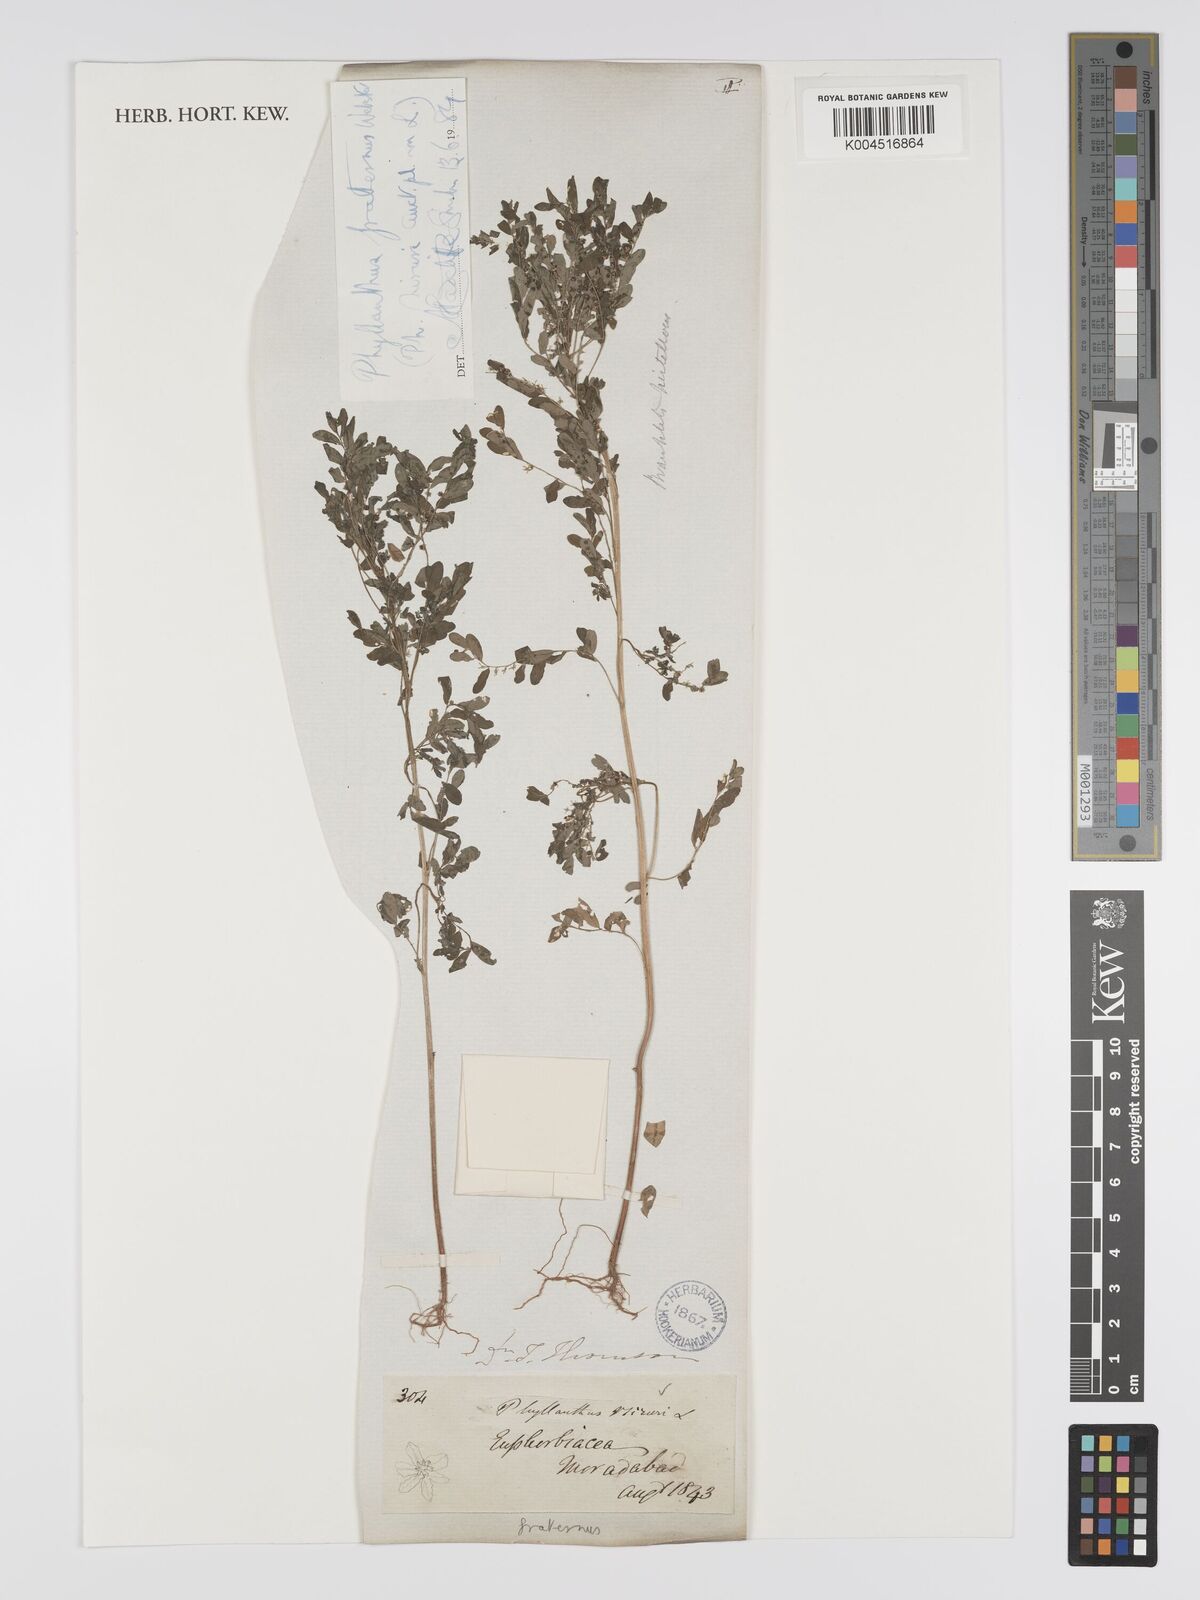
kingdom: Plantae
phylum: Tracheophyta
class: Magnoliopsida
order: Malpighiales
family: Phyllanthaceae
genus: Phyllanthus
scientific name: Phyllanthus niruri
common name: Niruri
